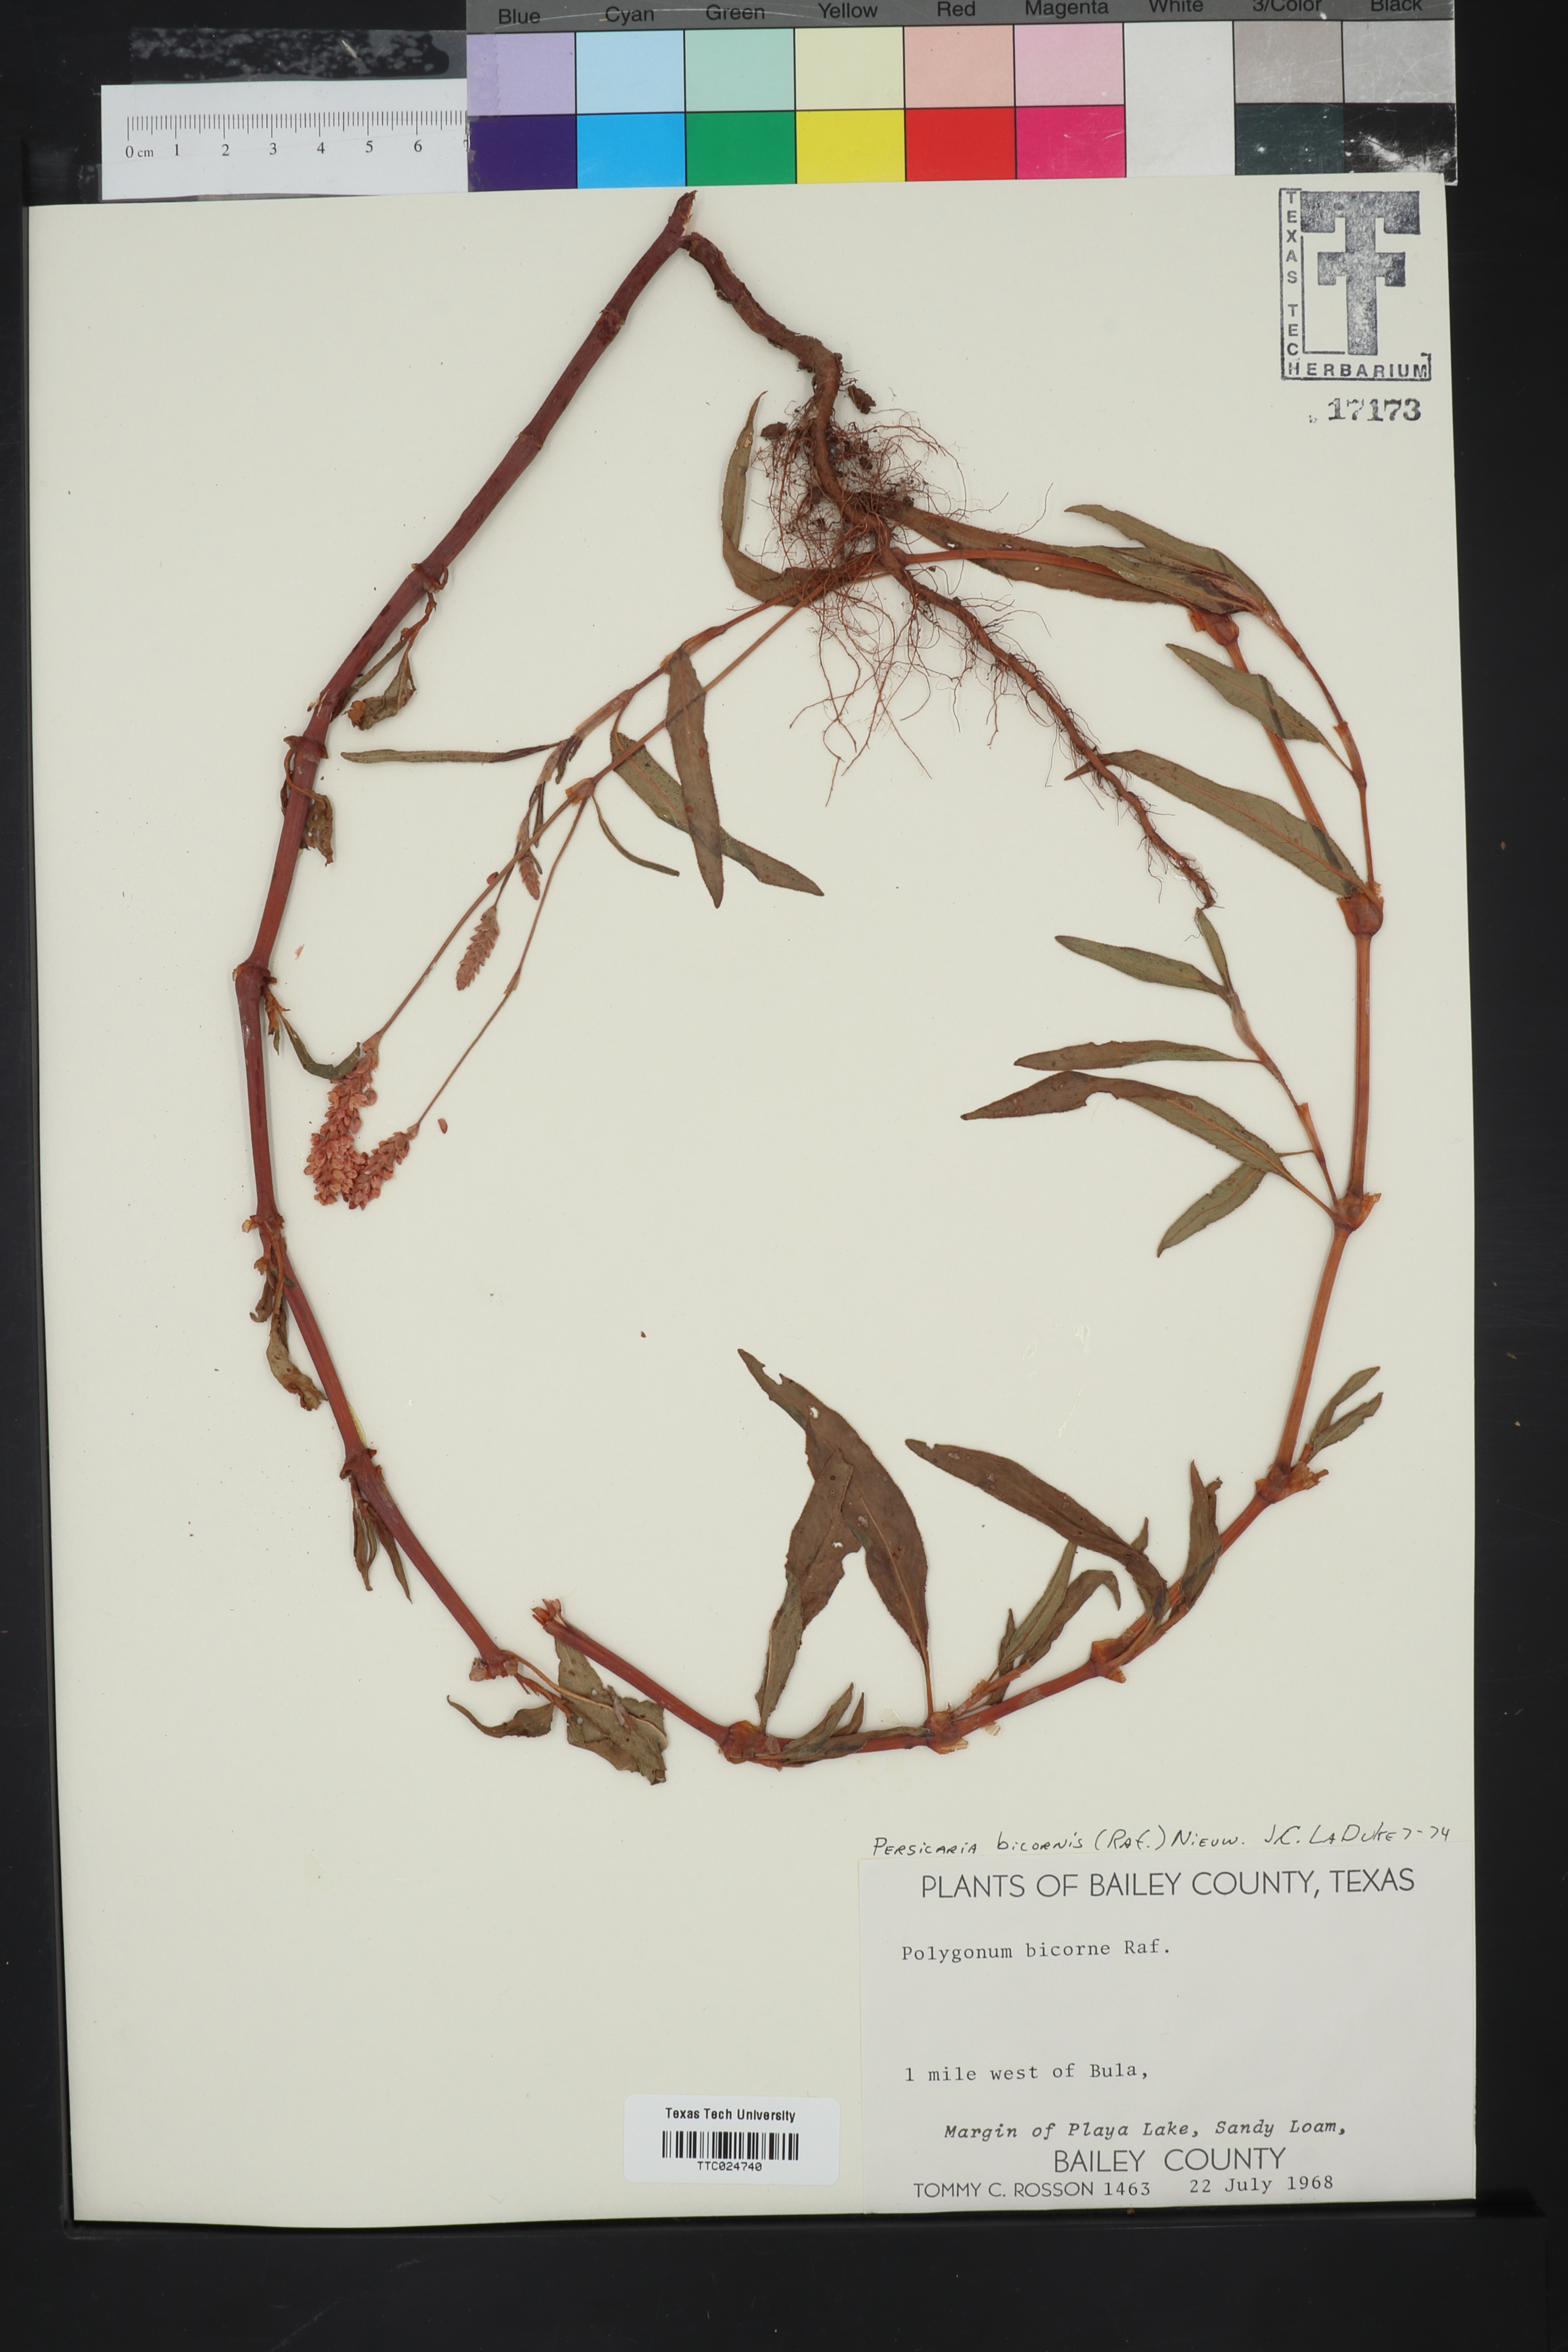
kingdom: Plantae
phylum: Tracheophyta
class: Magnoliopsida
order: Caryophyllales
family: Polygonaceae
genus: Persicaria
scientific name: Persicaria bicornis
